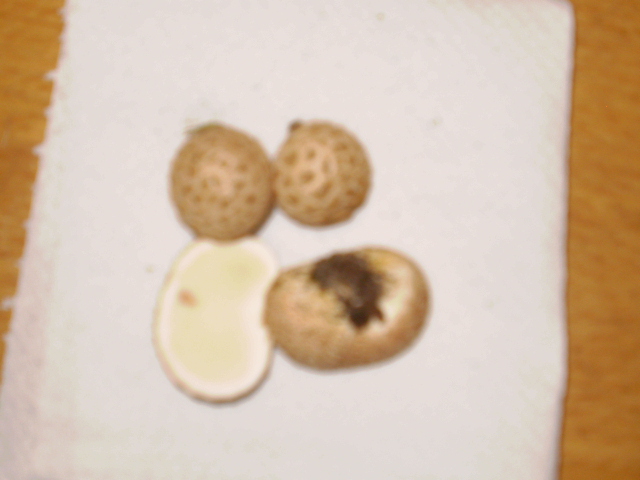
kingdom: Fungi
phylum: Basidiomycota
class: Agaricomycetes
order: Boletales
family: Sclerodermataceae
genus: Scleroderma
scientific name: Scleroderma citrinum
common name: almindelig bruskbold
